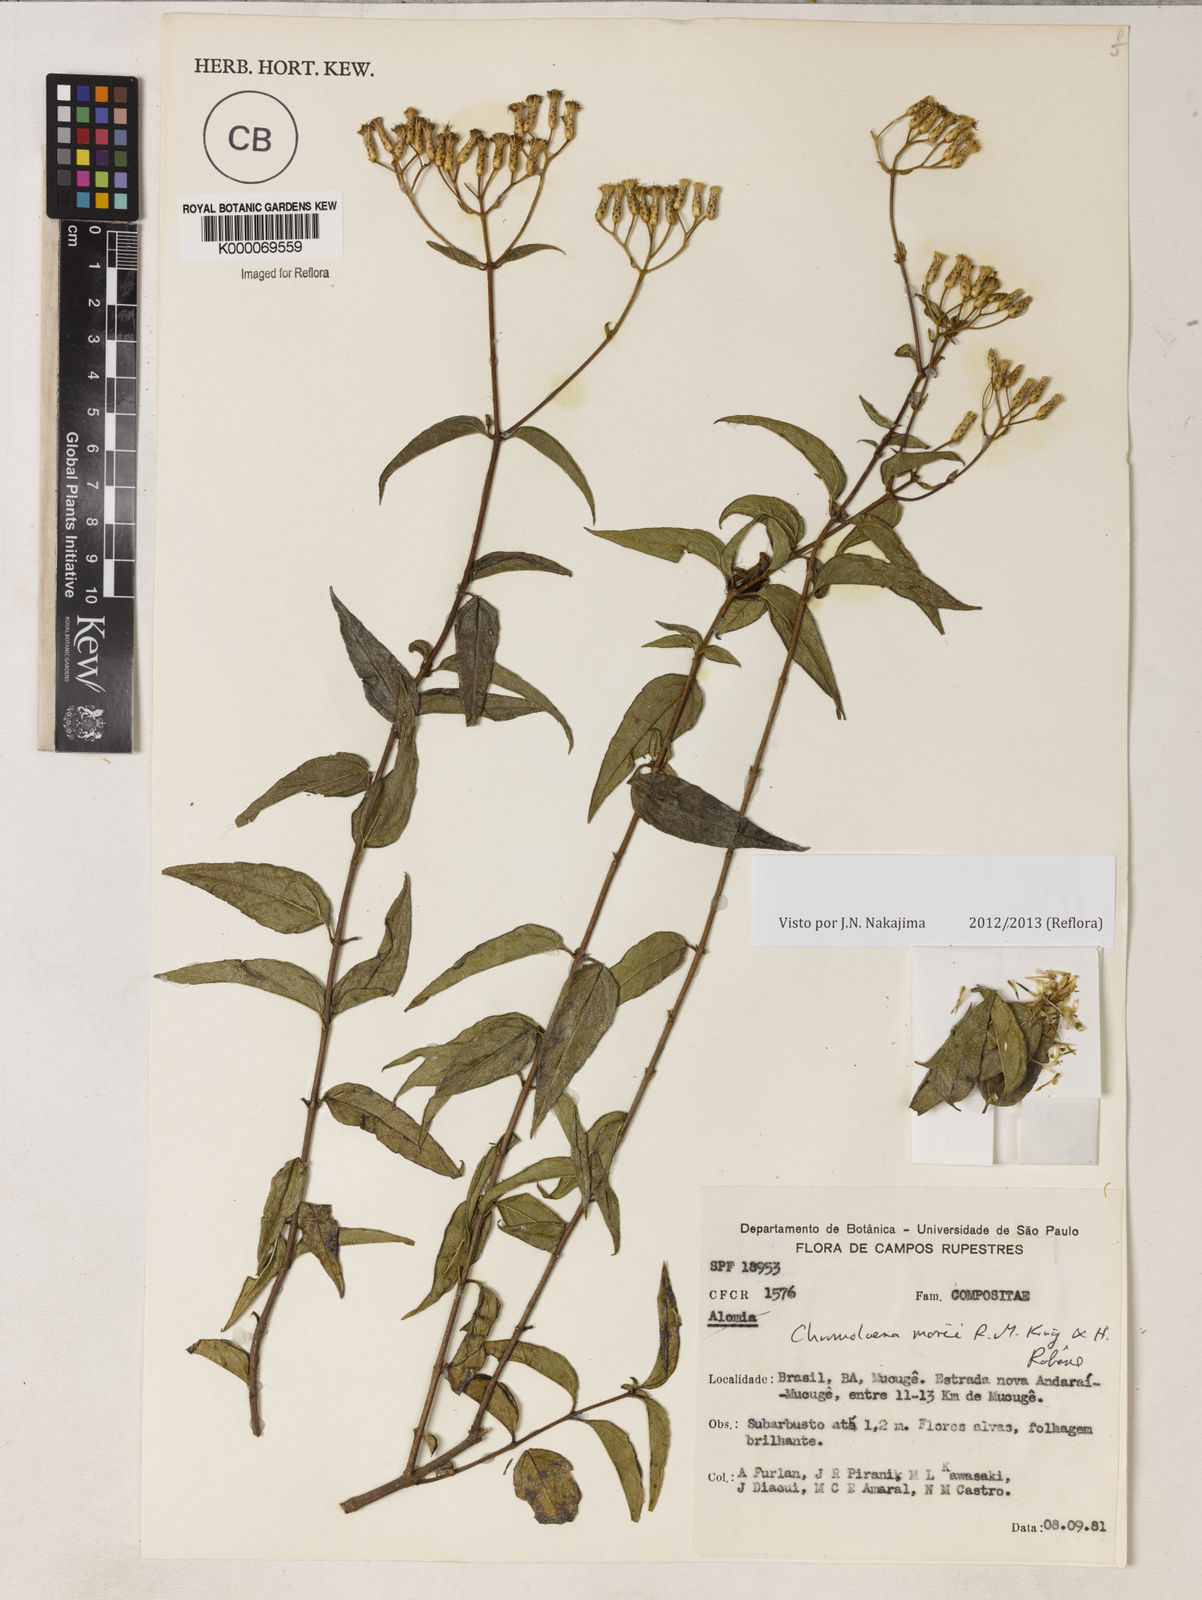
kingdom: Plantae
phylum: Tracheophyta
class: Magnoliopsida
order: Asterales
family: Asteraceae
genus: Chromolaena
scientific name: Chromolaena morii
